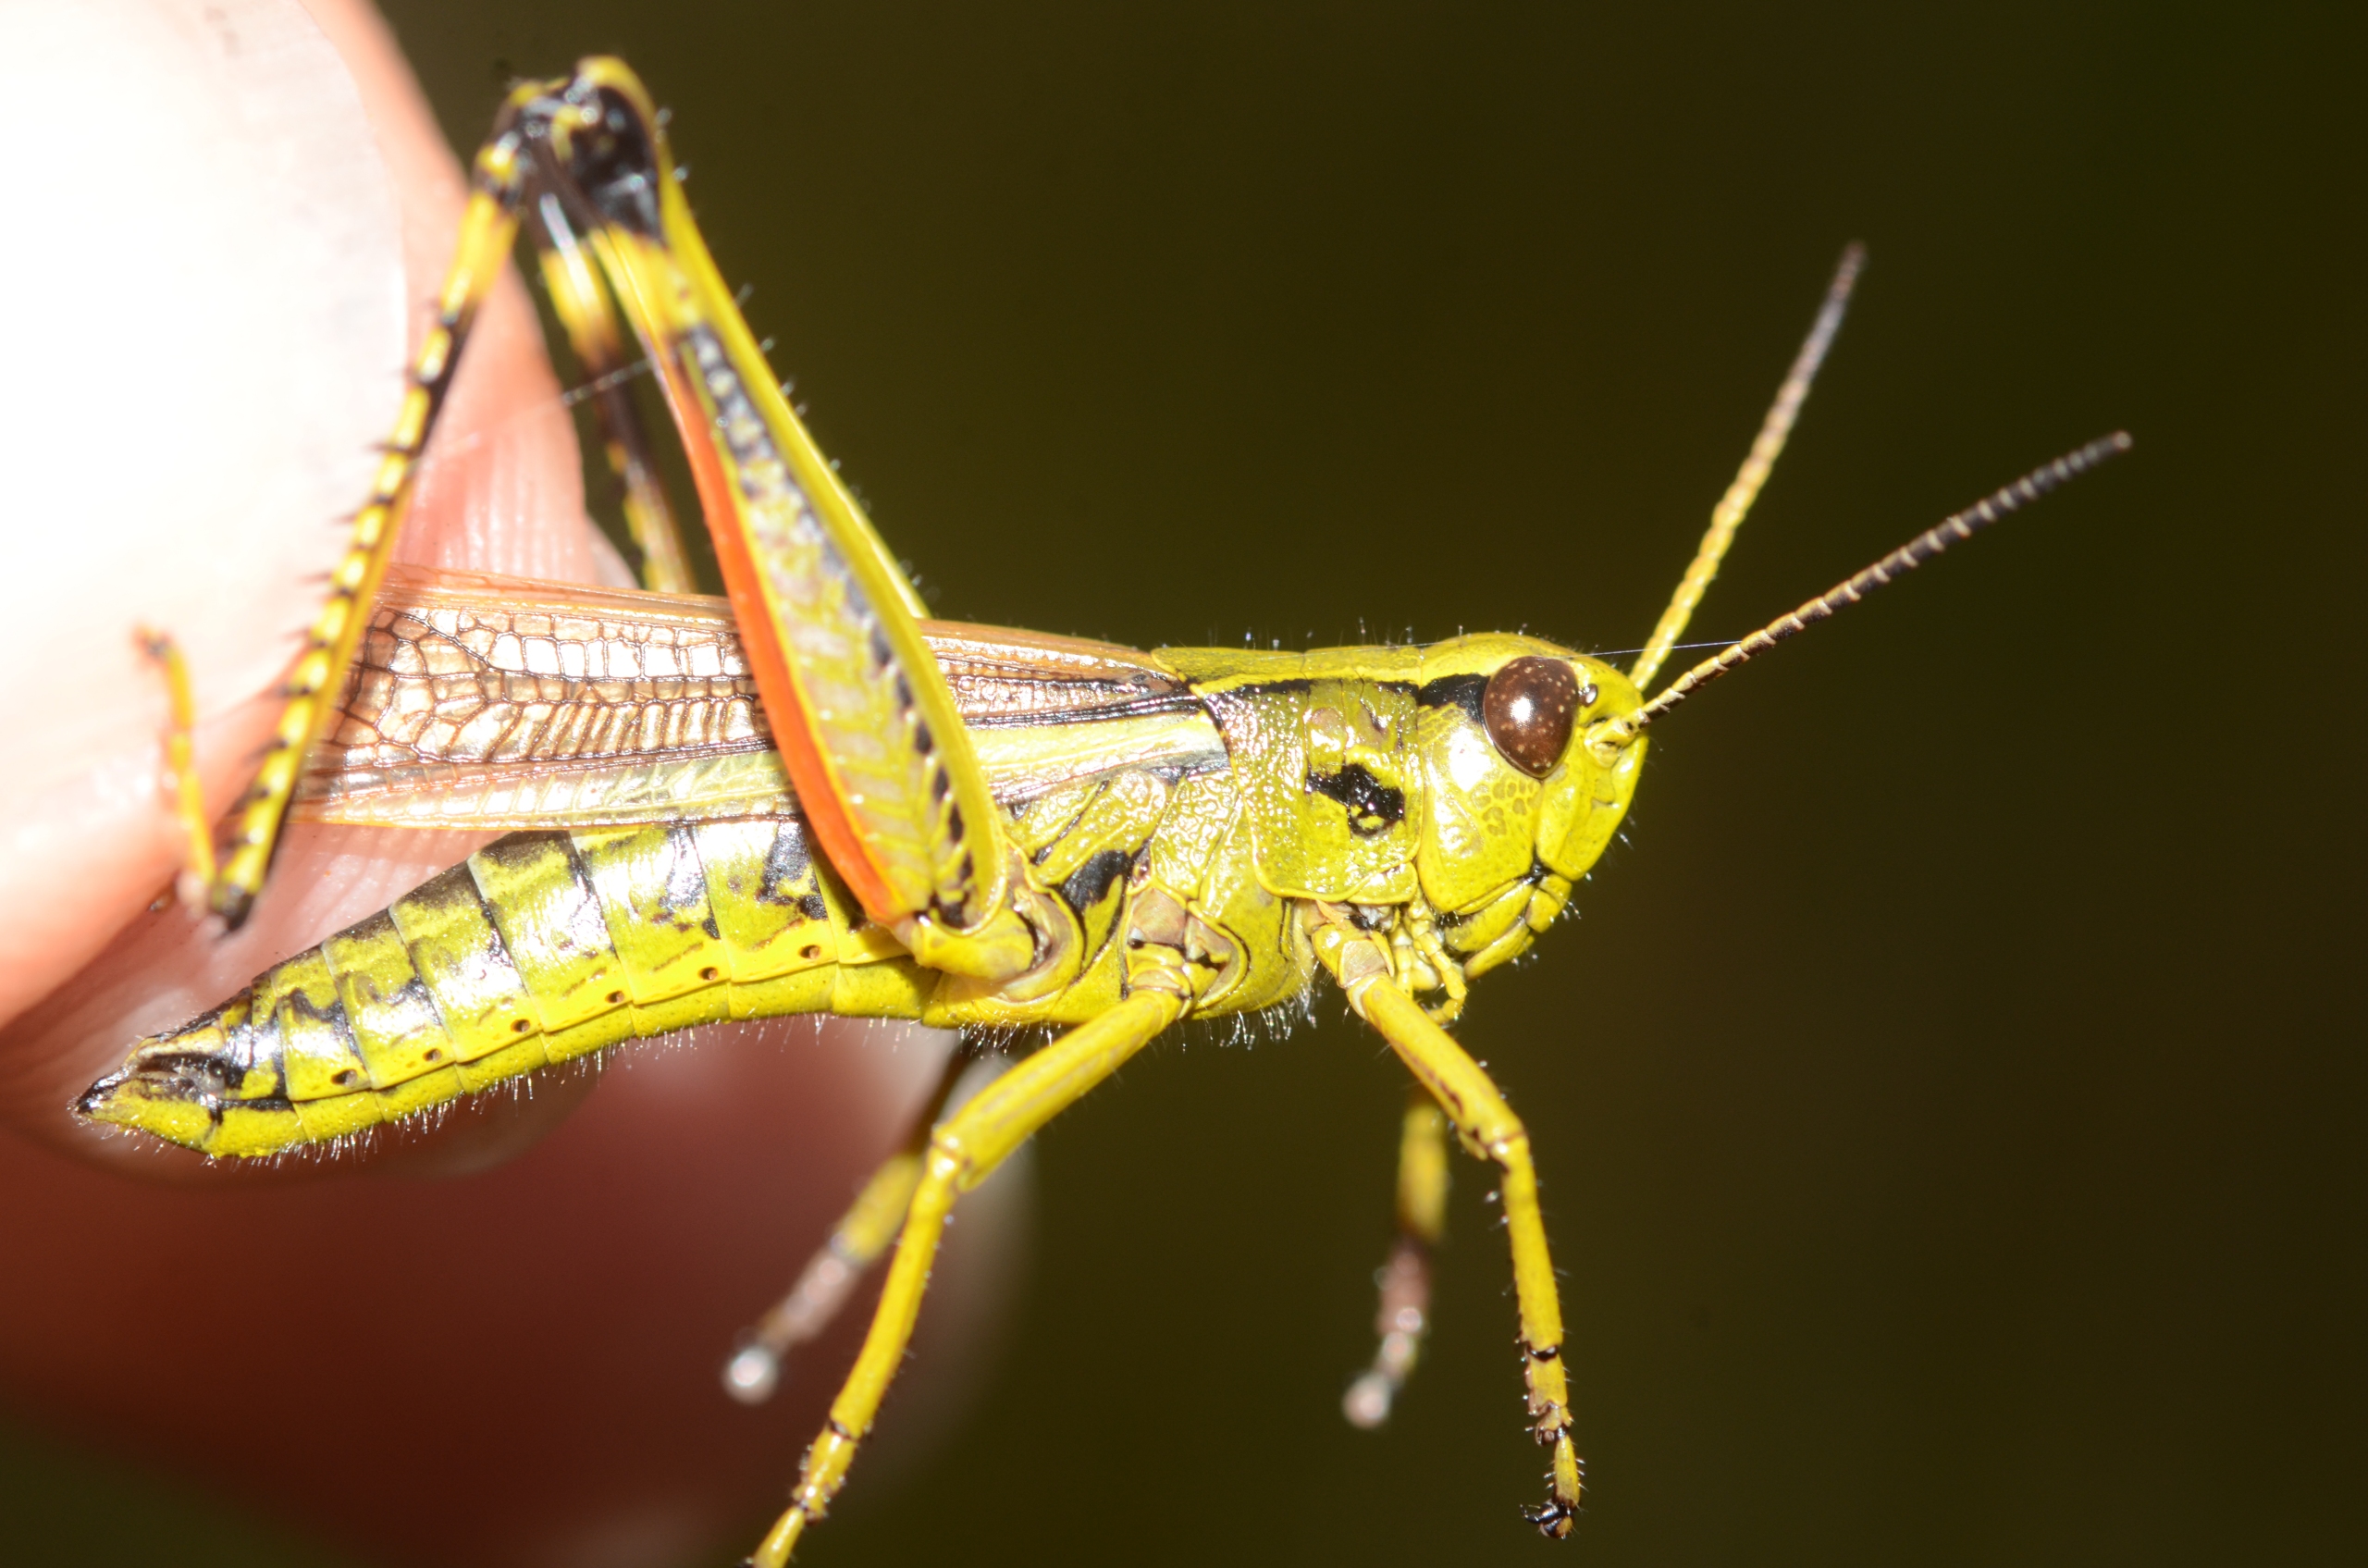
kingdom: Animalia
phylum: Arthropoda
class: Insecta
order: Orthoptera
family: Acrididae
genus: Stethophyma
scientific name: Stethophyma grossum
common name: Sumpgræshoppe
